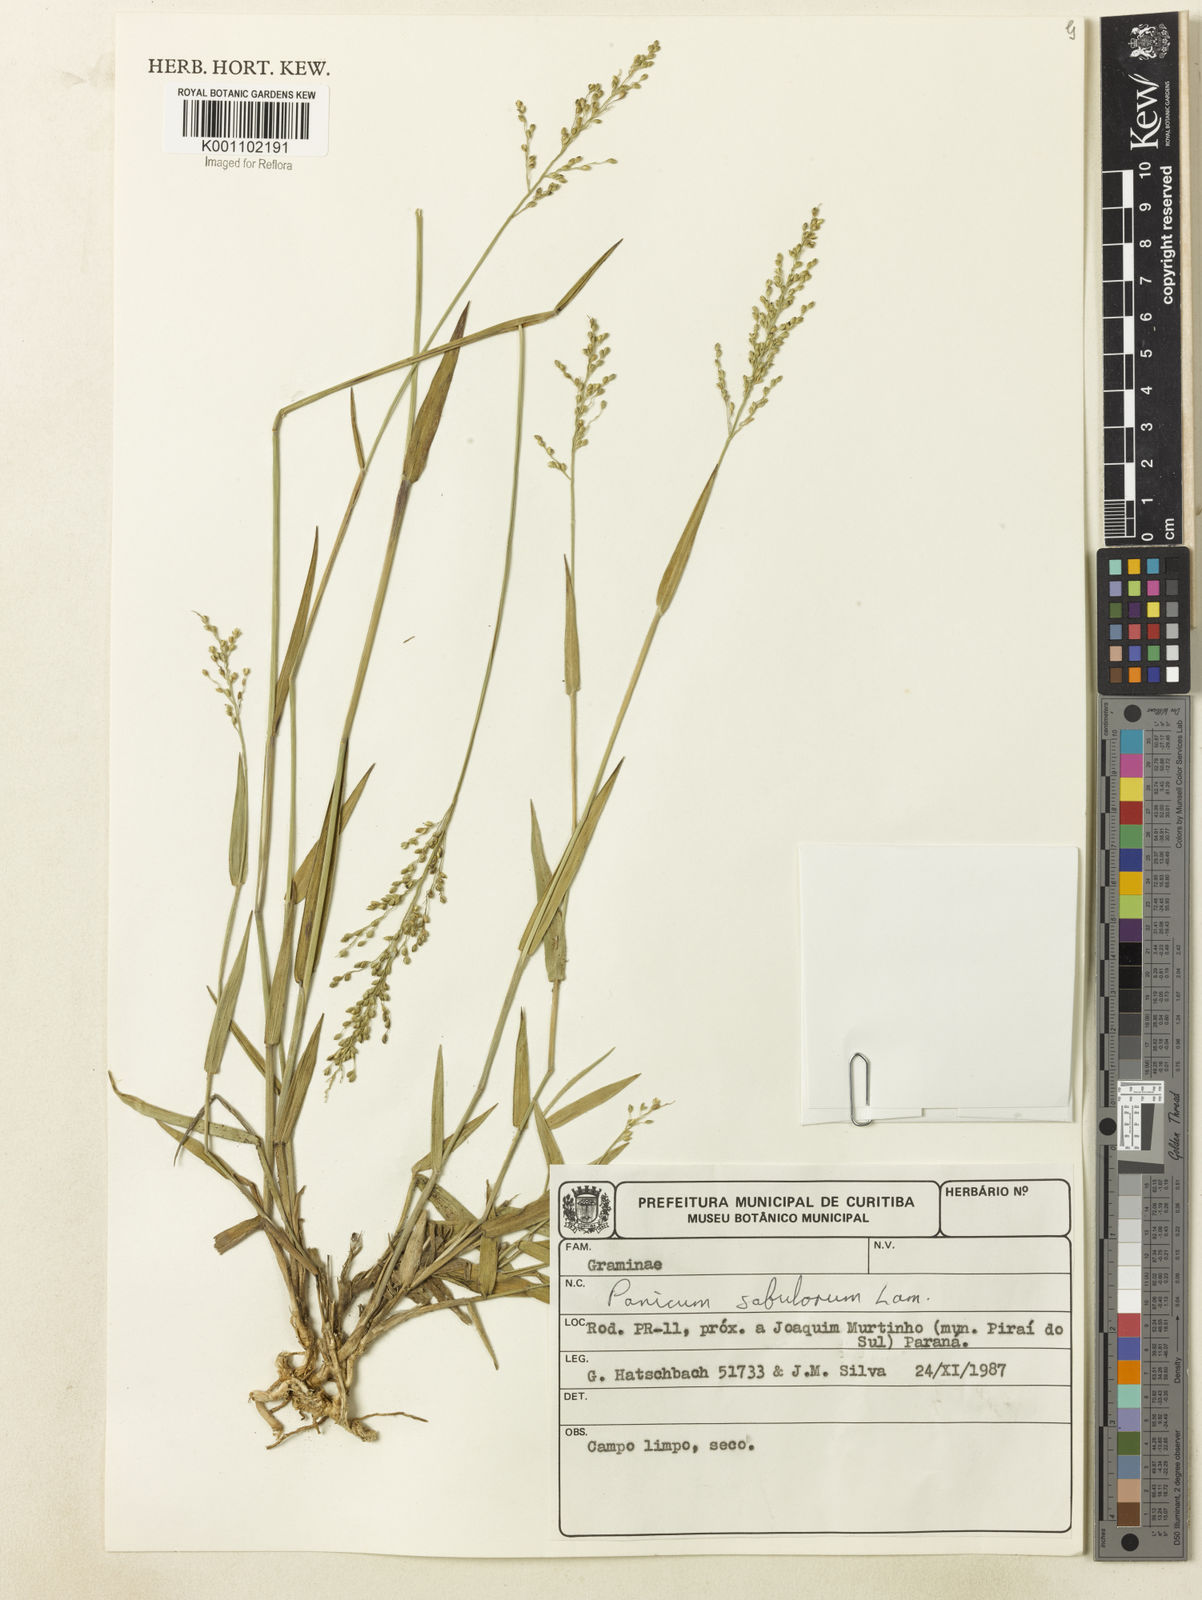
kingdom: Plantae
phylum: Tracheophyta
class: Liliopsida
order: Poales
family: Poaceae
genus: Dichanthelium
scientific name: Dichanthelium sabulorum
